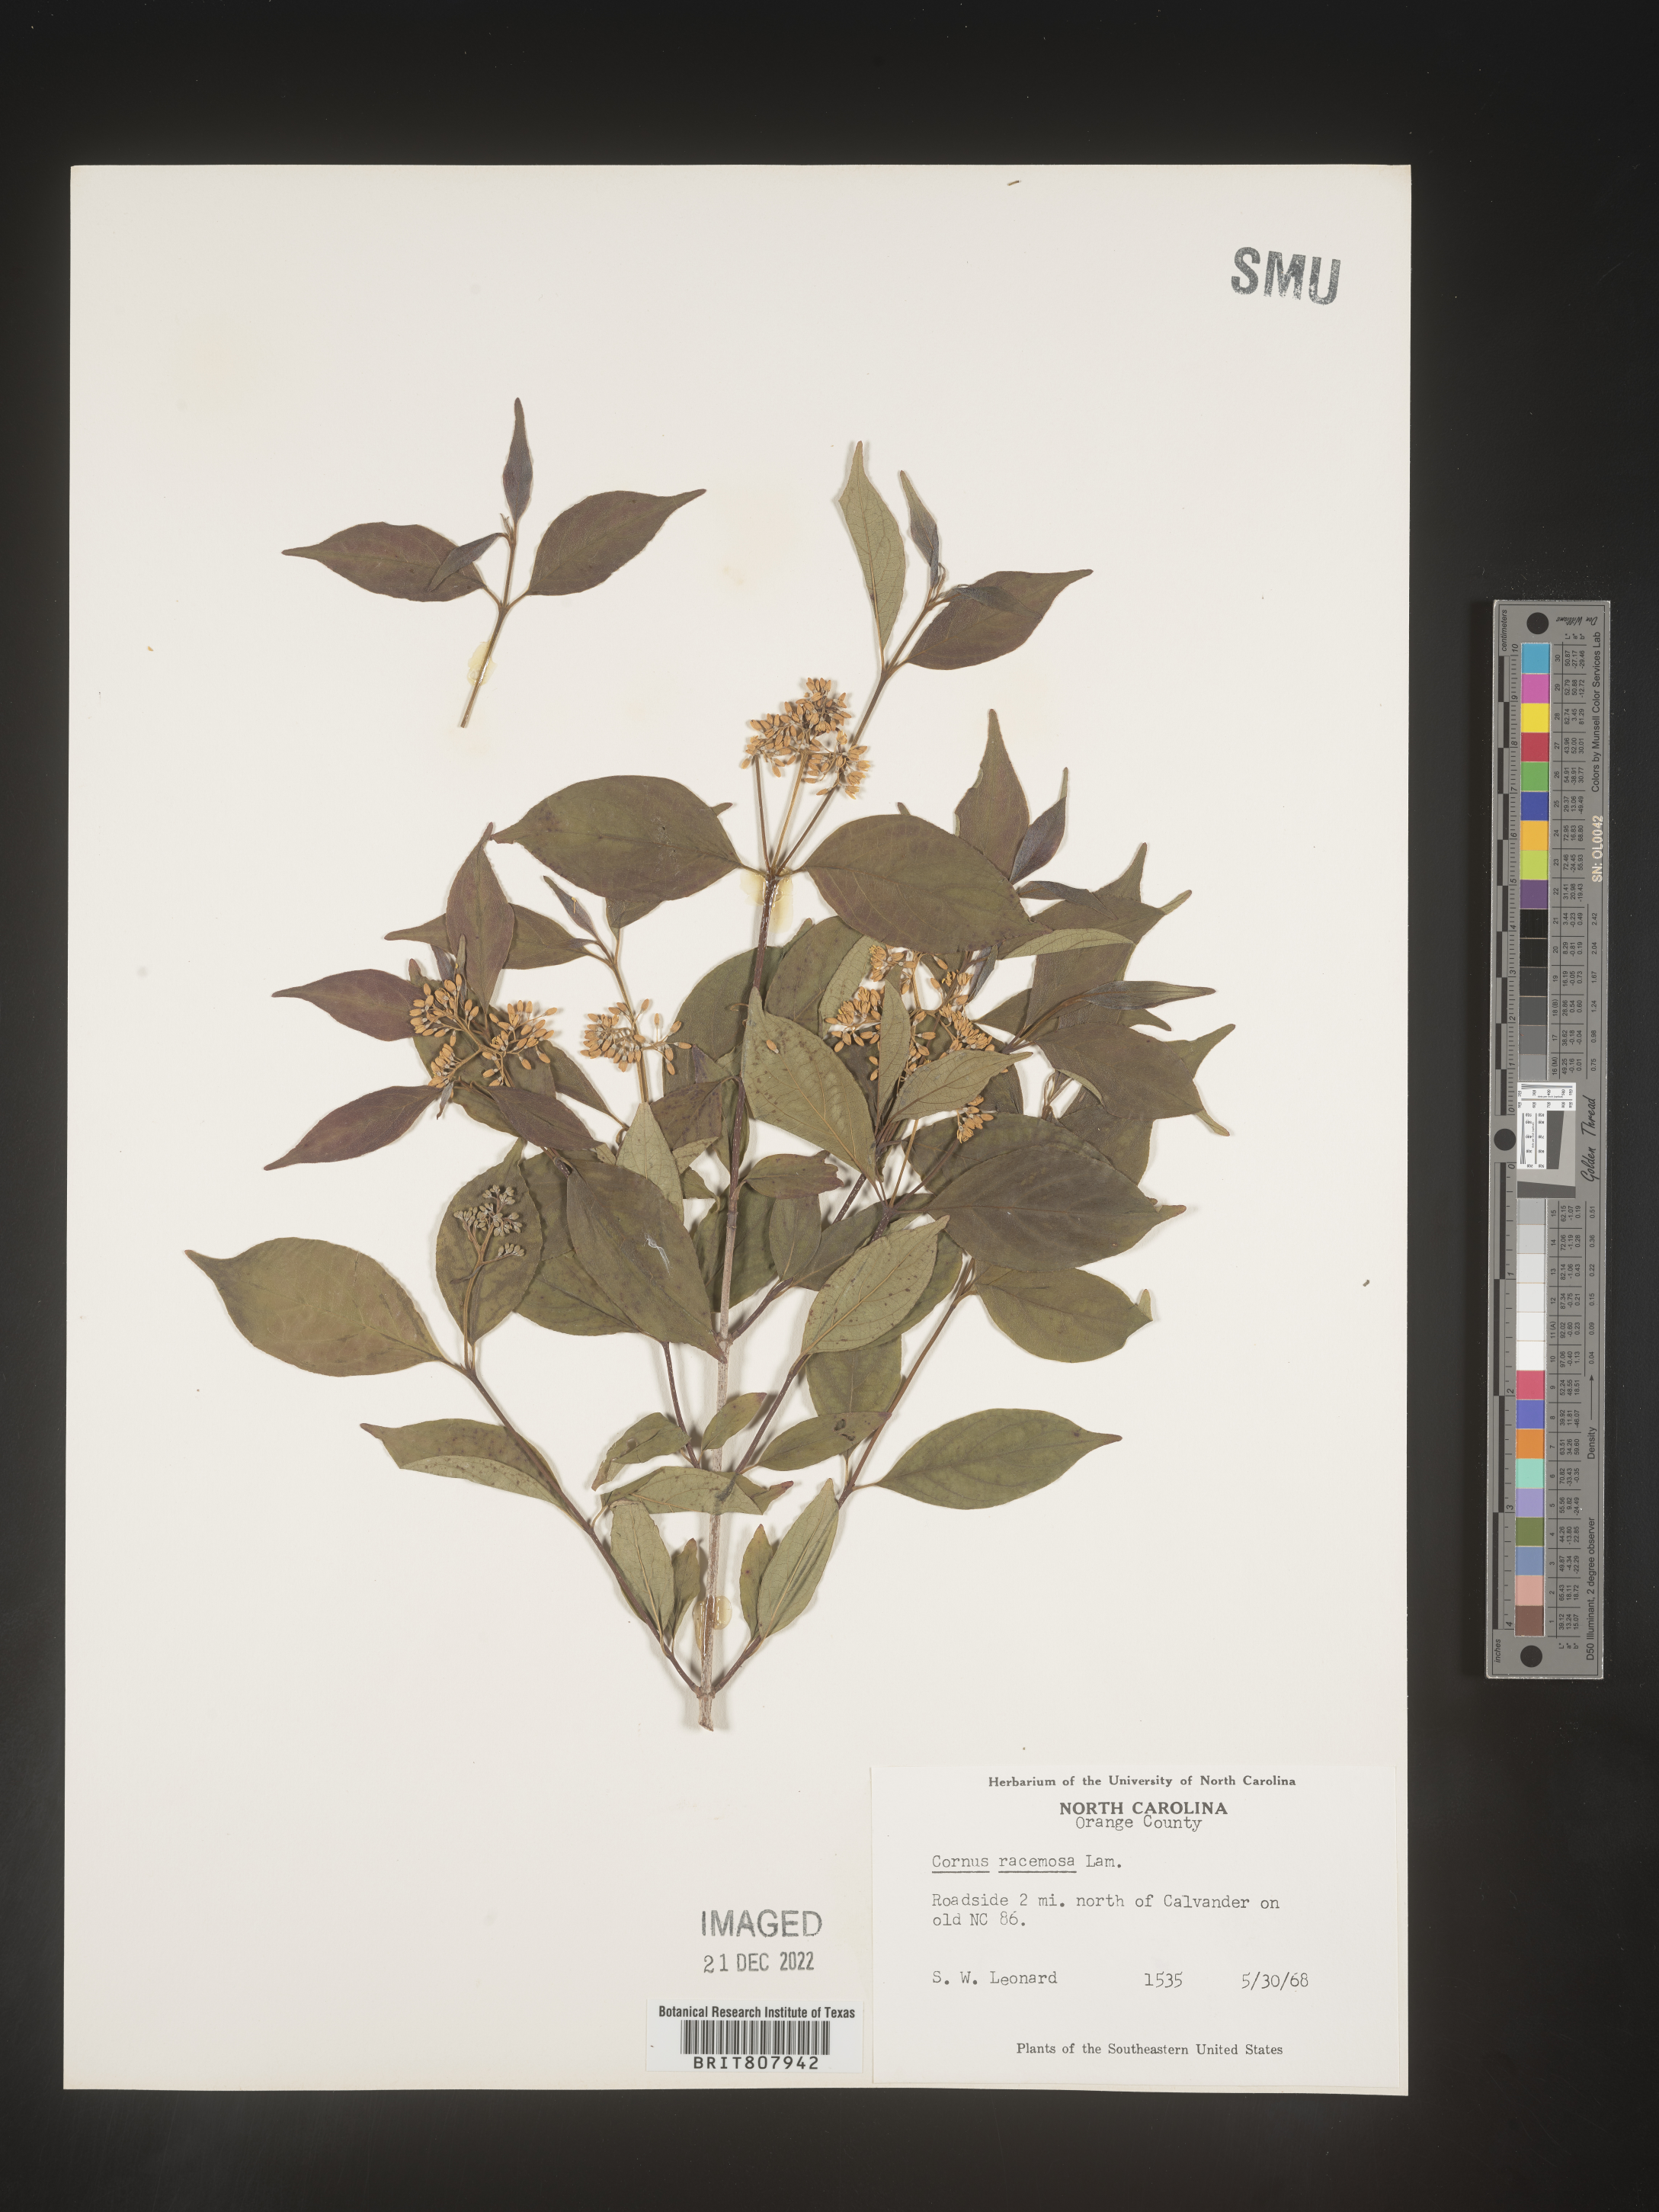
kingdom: Plantae
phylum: Tracheophyta
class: Magnoliopsida
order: Cornales
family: Cornaceae
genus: Cornus
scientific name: Cornus racemosa
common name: Panicled dogwood
